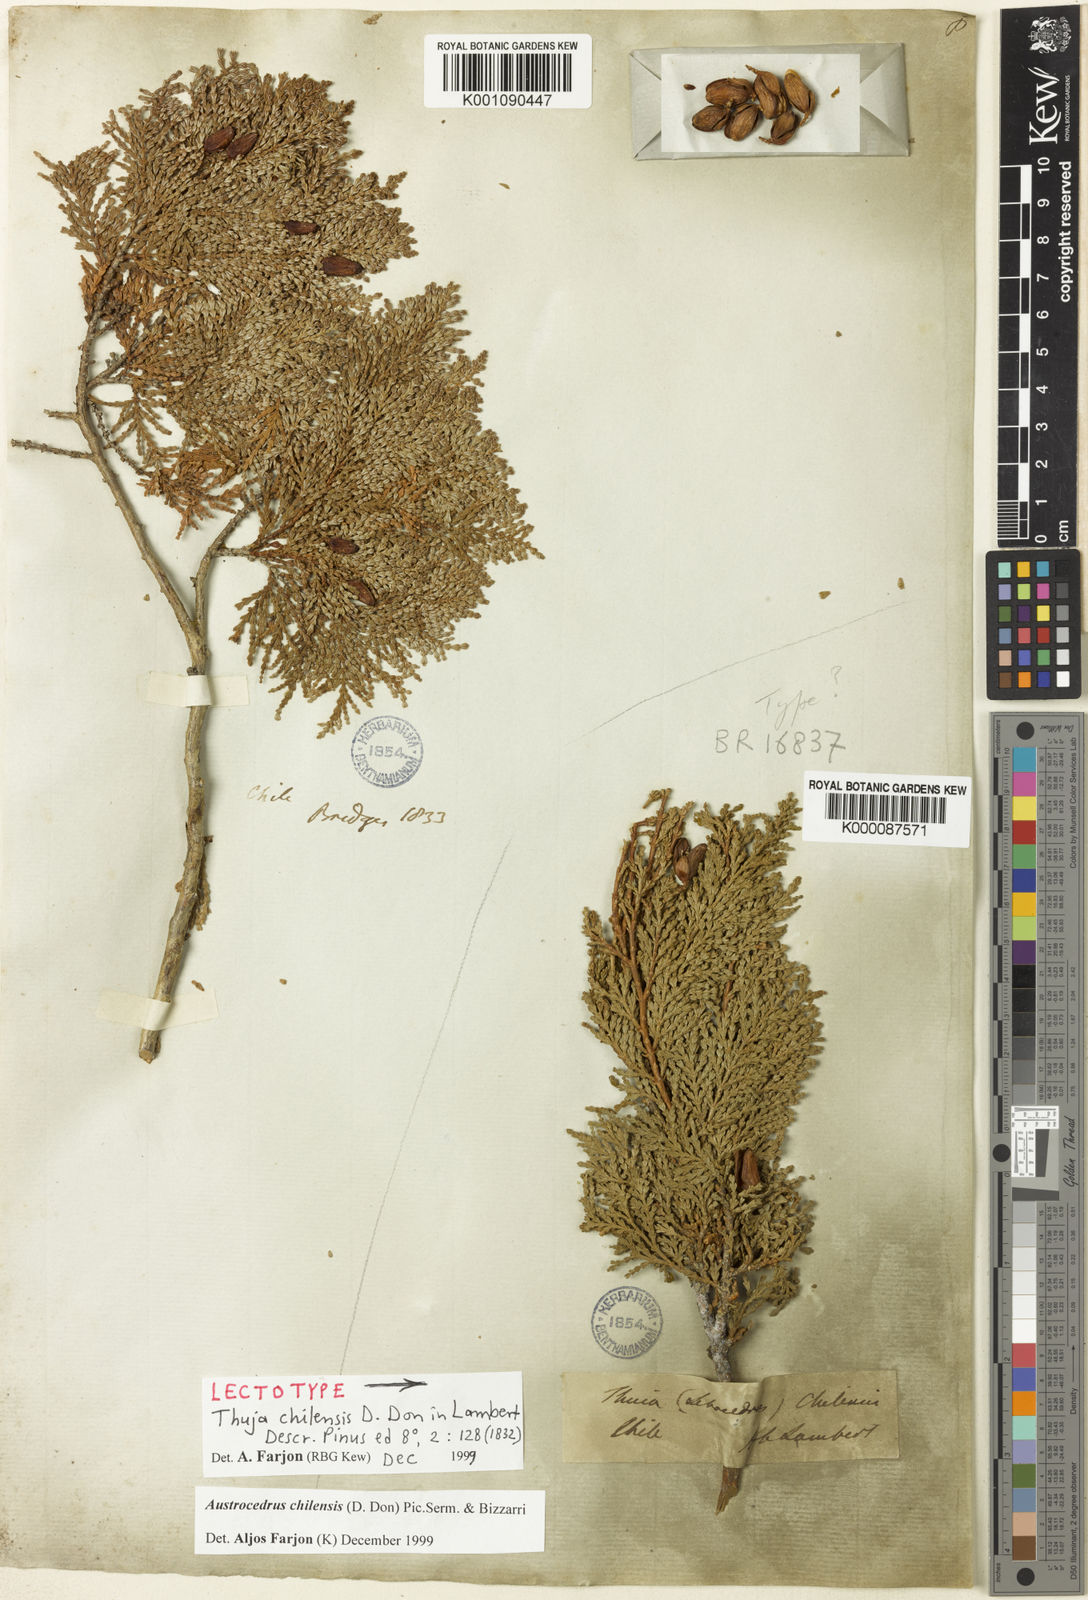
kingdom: Plantae
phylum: Tracheophyta
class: Pinopsida
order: Pinales
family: Cupressaceae
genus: Austrocedrus
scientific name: Austrocedrus chilensis
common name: Chilean incense-cedar
